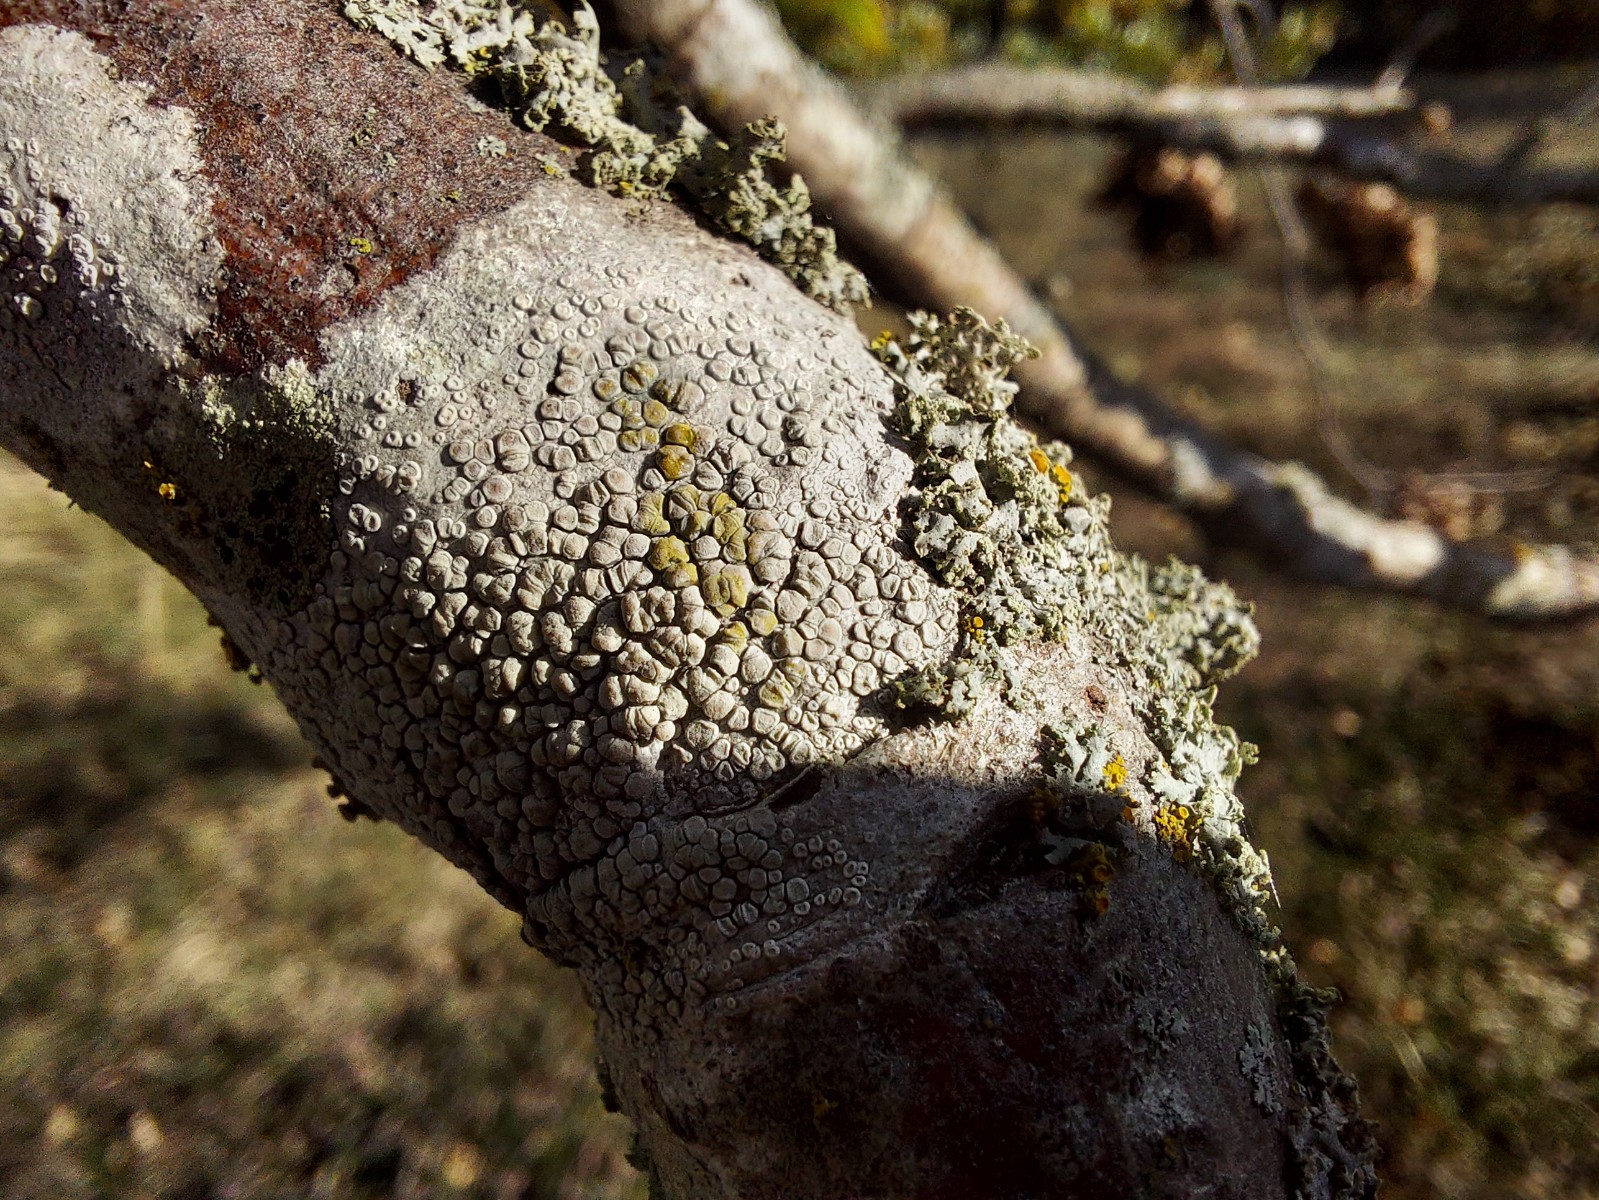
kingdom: Fungi
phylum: Ascomycota
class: Lecanoromycetes
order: Lecanorales
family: Lecanoraceae
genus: Glaucomaria
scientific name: Glaucomaria carpinea
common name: hviddugget kantskivelav
